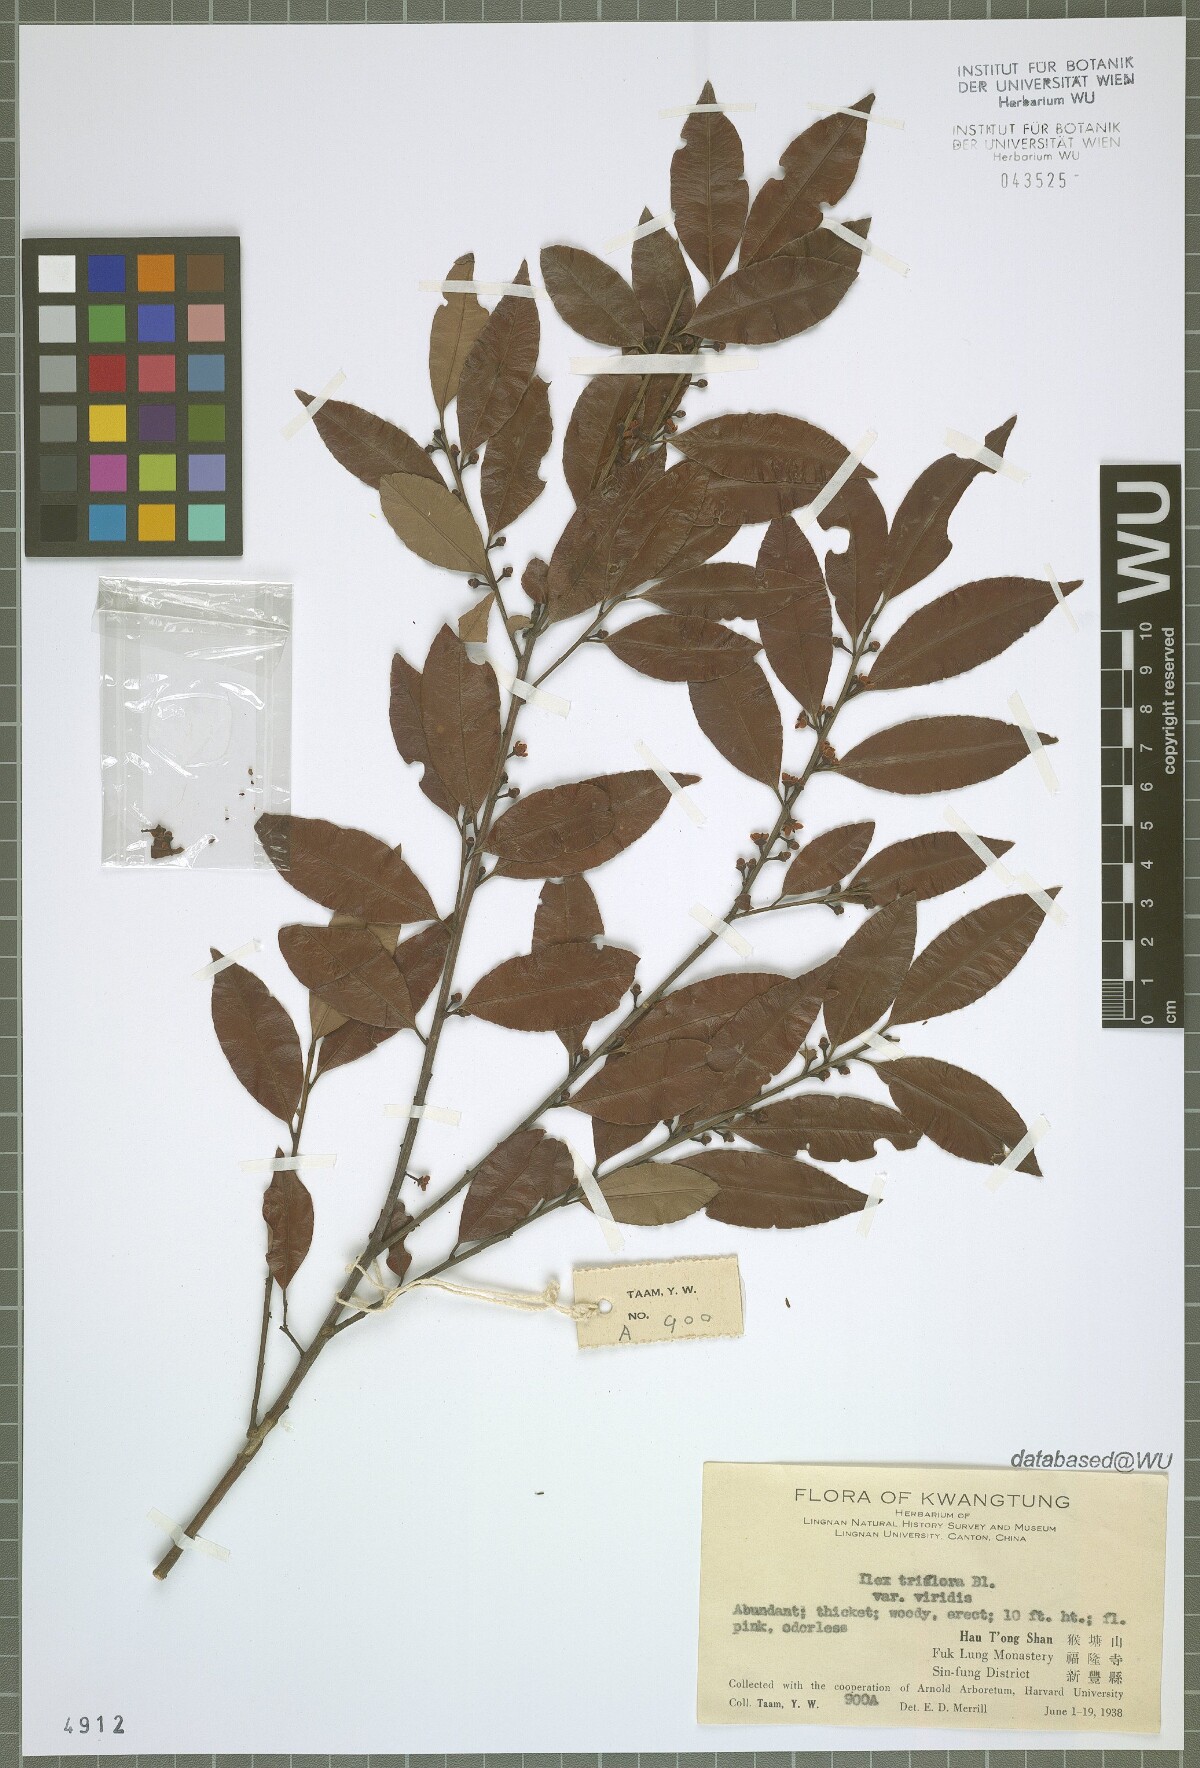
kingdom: Plantae
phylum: Tracheophyta
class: Magnoliopsida
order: Aquifoliales
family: Aquifoliaceae
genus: Ilex
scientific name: Ilex viridis
